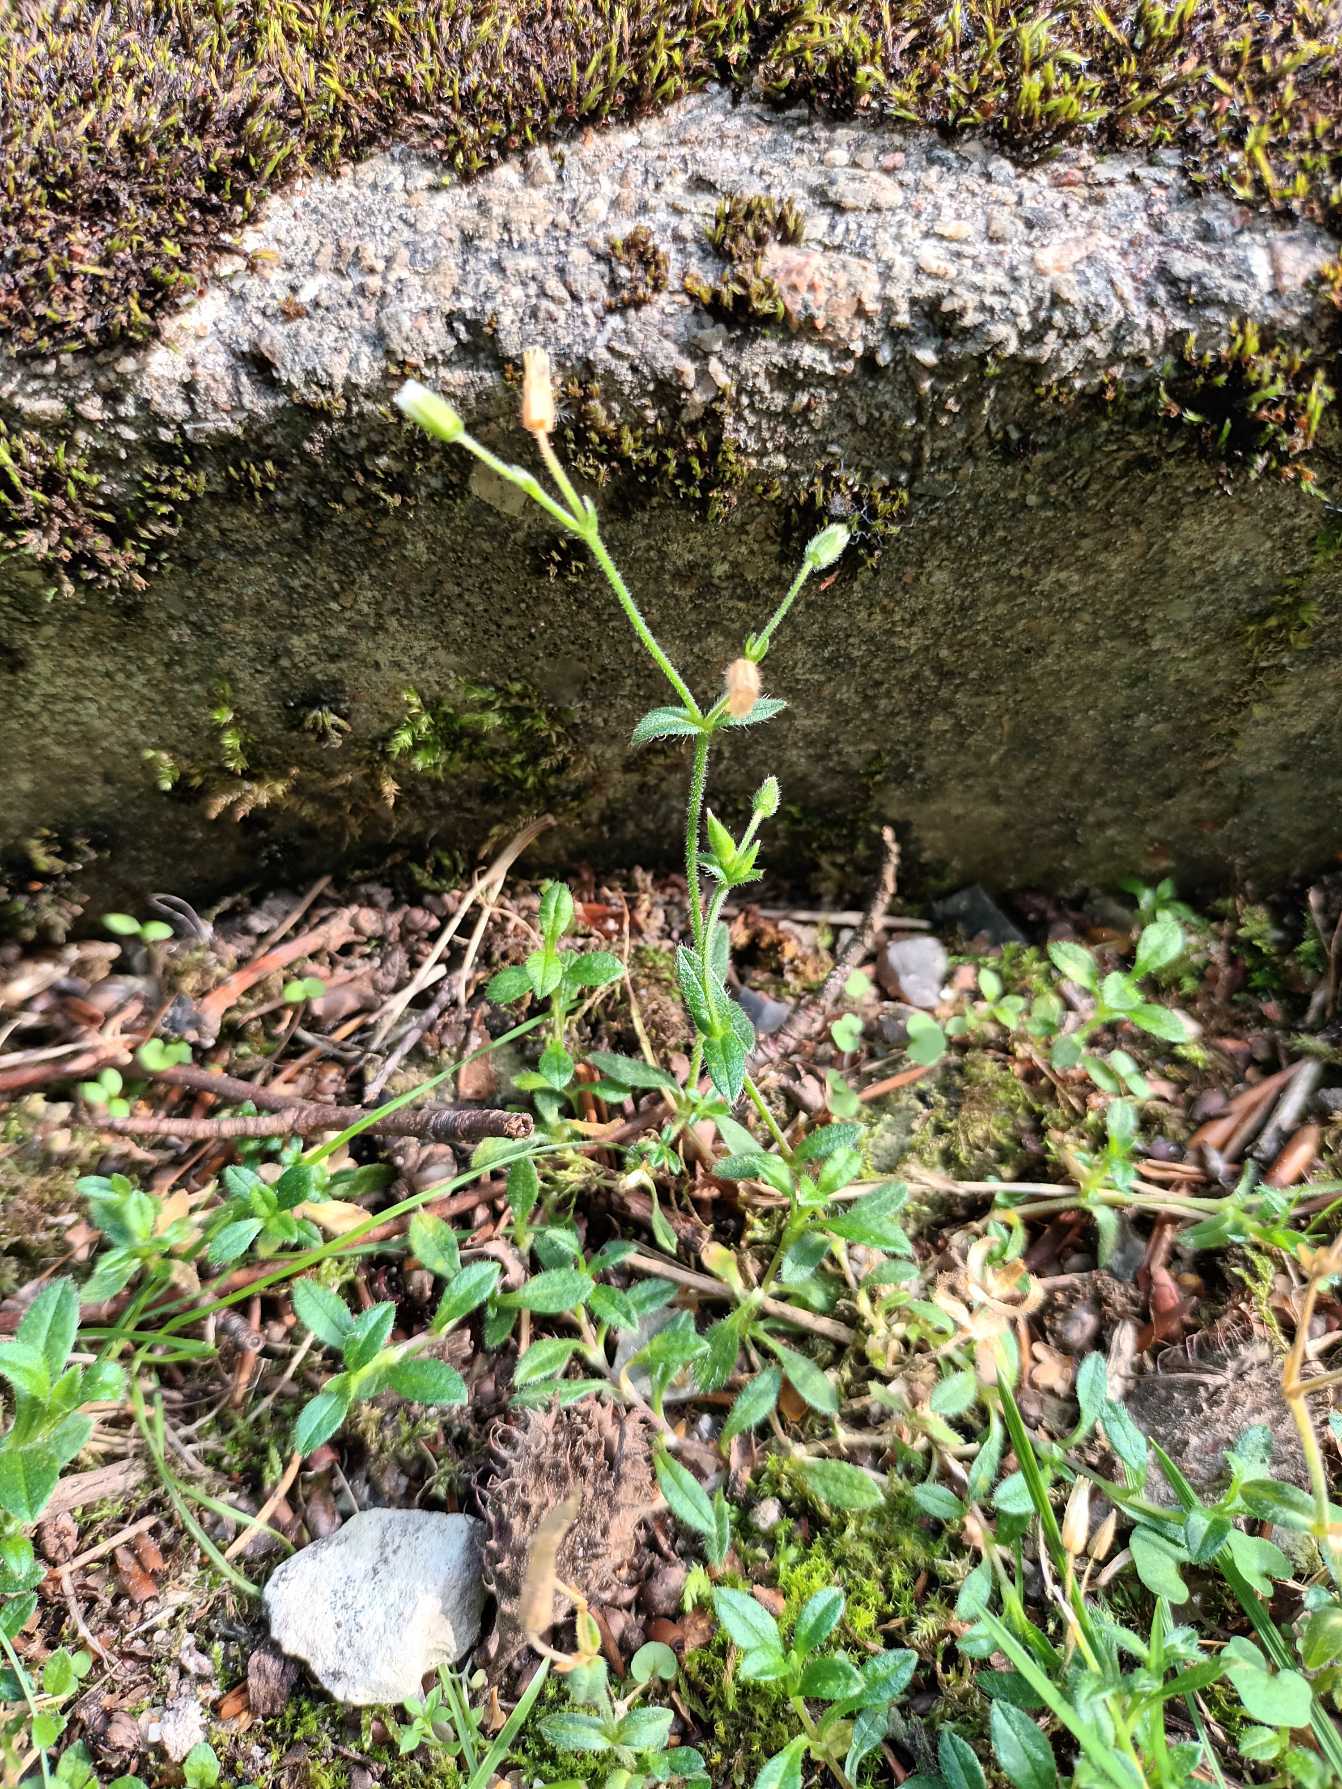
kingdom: Plantae
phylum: Tracheophyta
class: Magnoliopsida
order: Caryophyllales
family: Caryophyllaceae
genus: Cerastium
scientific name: Cerastium fontanum
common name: Almindelig hønsetarm
